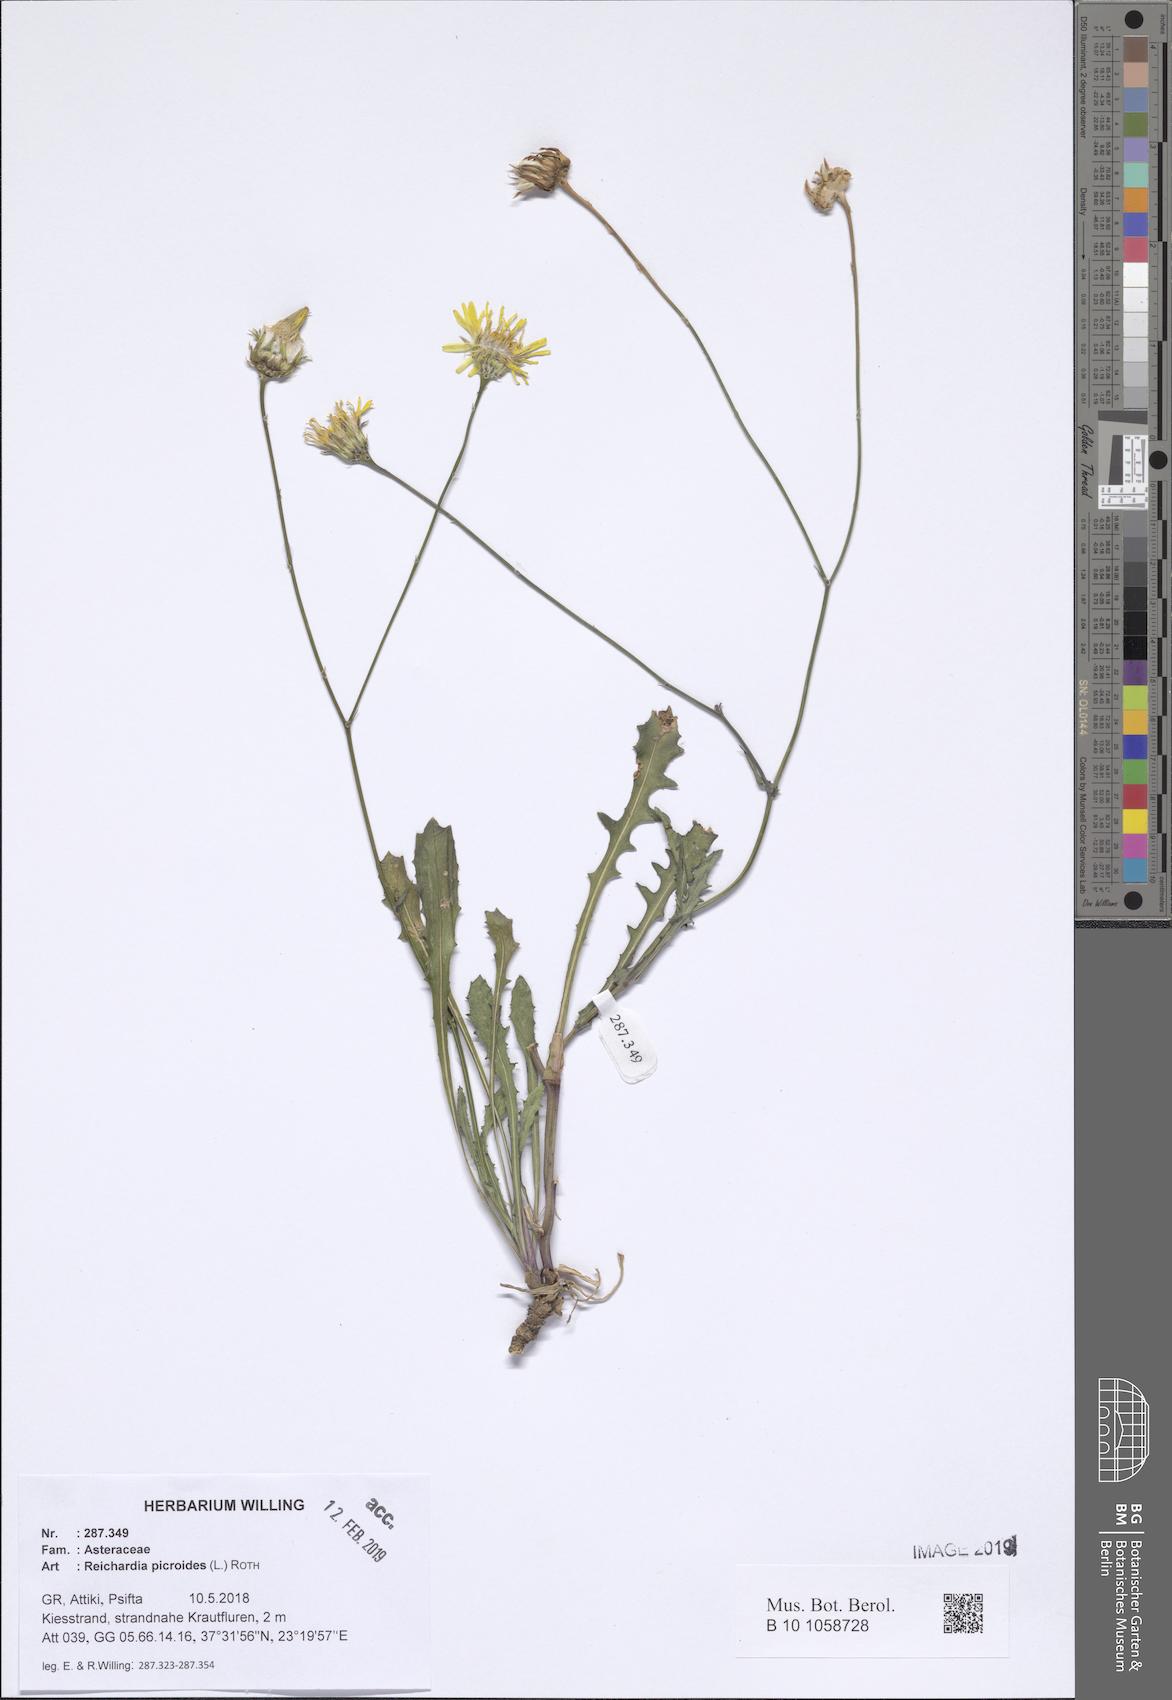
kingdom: Plantae
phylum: Tracheophyta
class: Magnoliopsida
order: Asterales
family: Asteraceae
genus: Reichardia
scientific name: Reichardia picroides
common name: Common brighteyes
